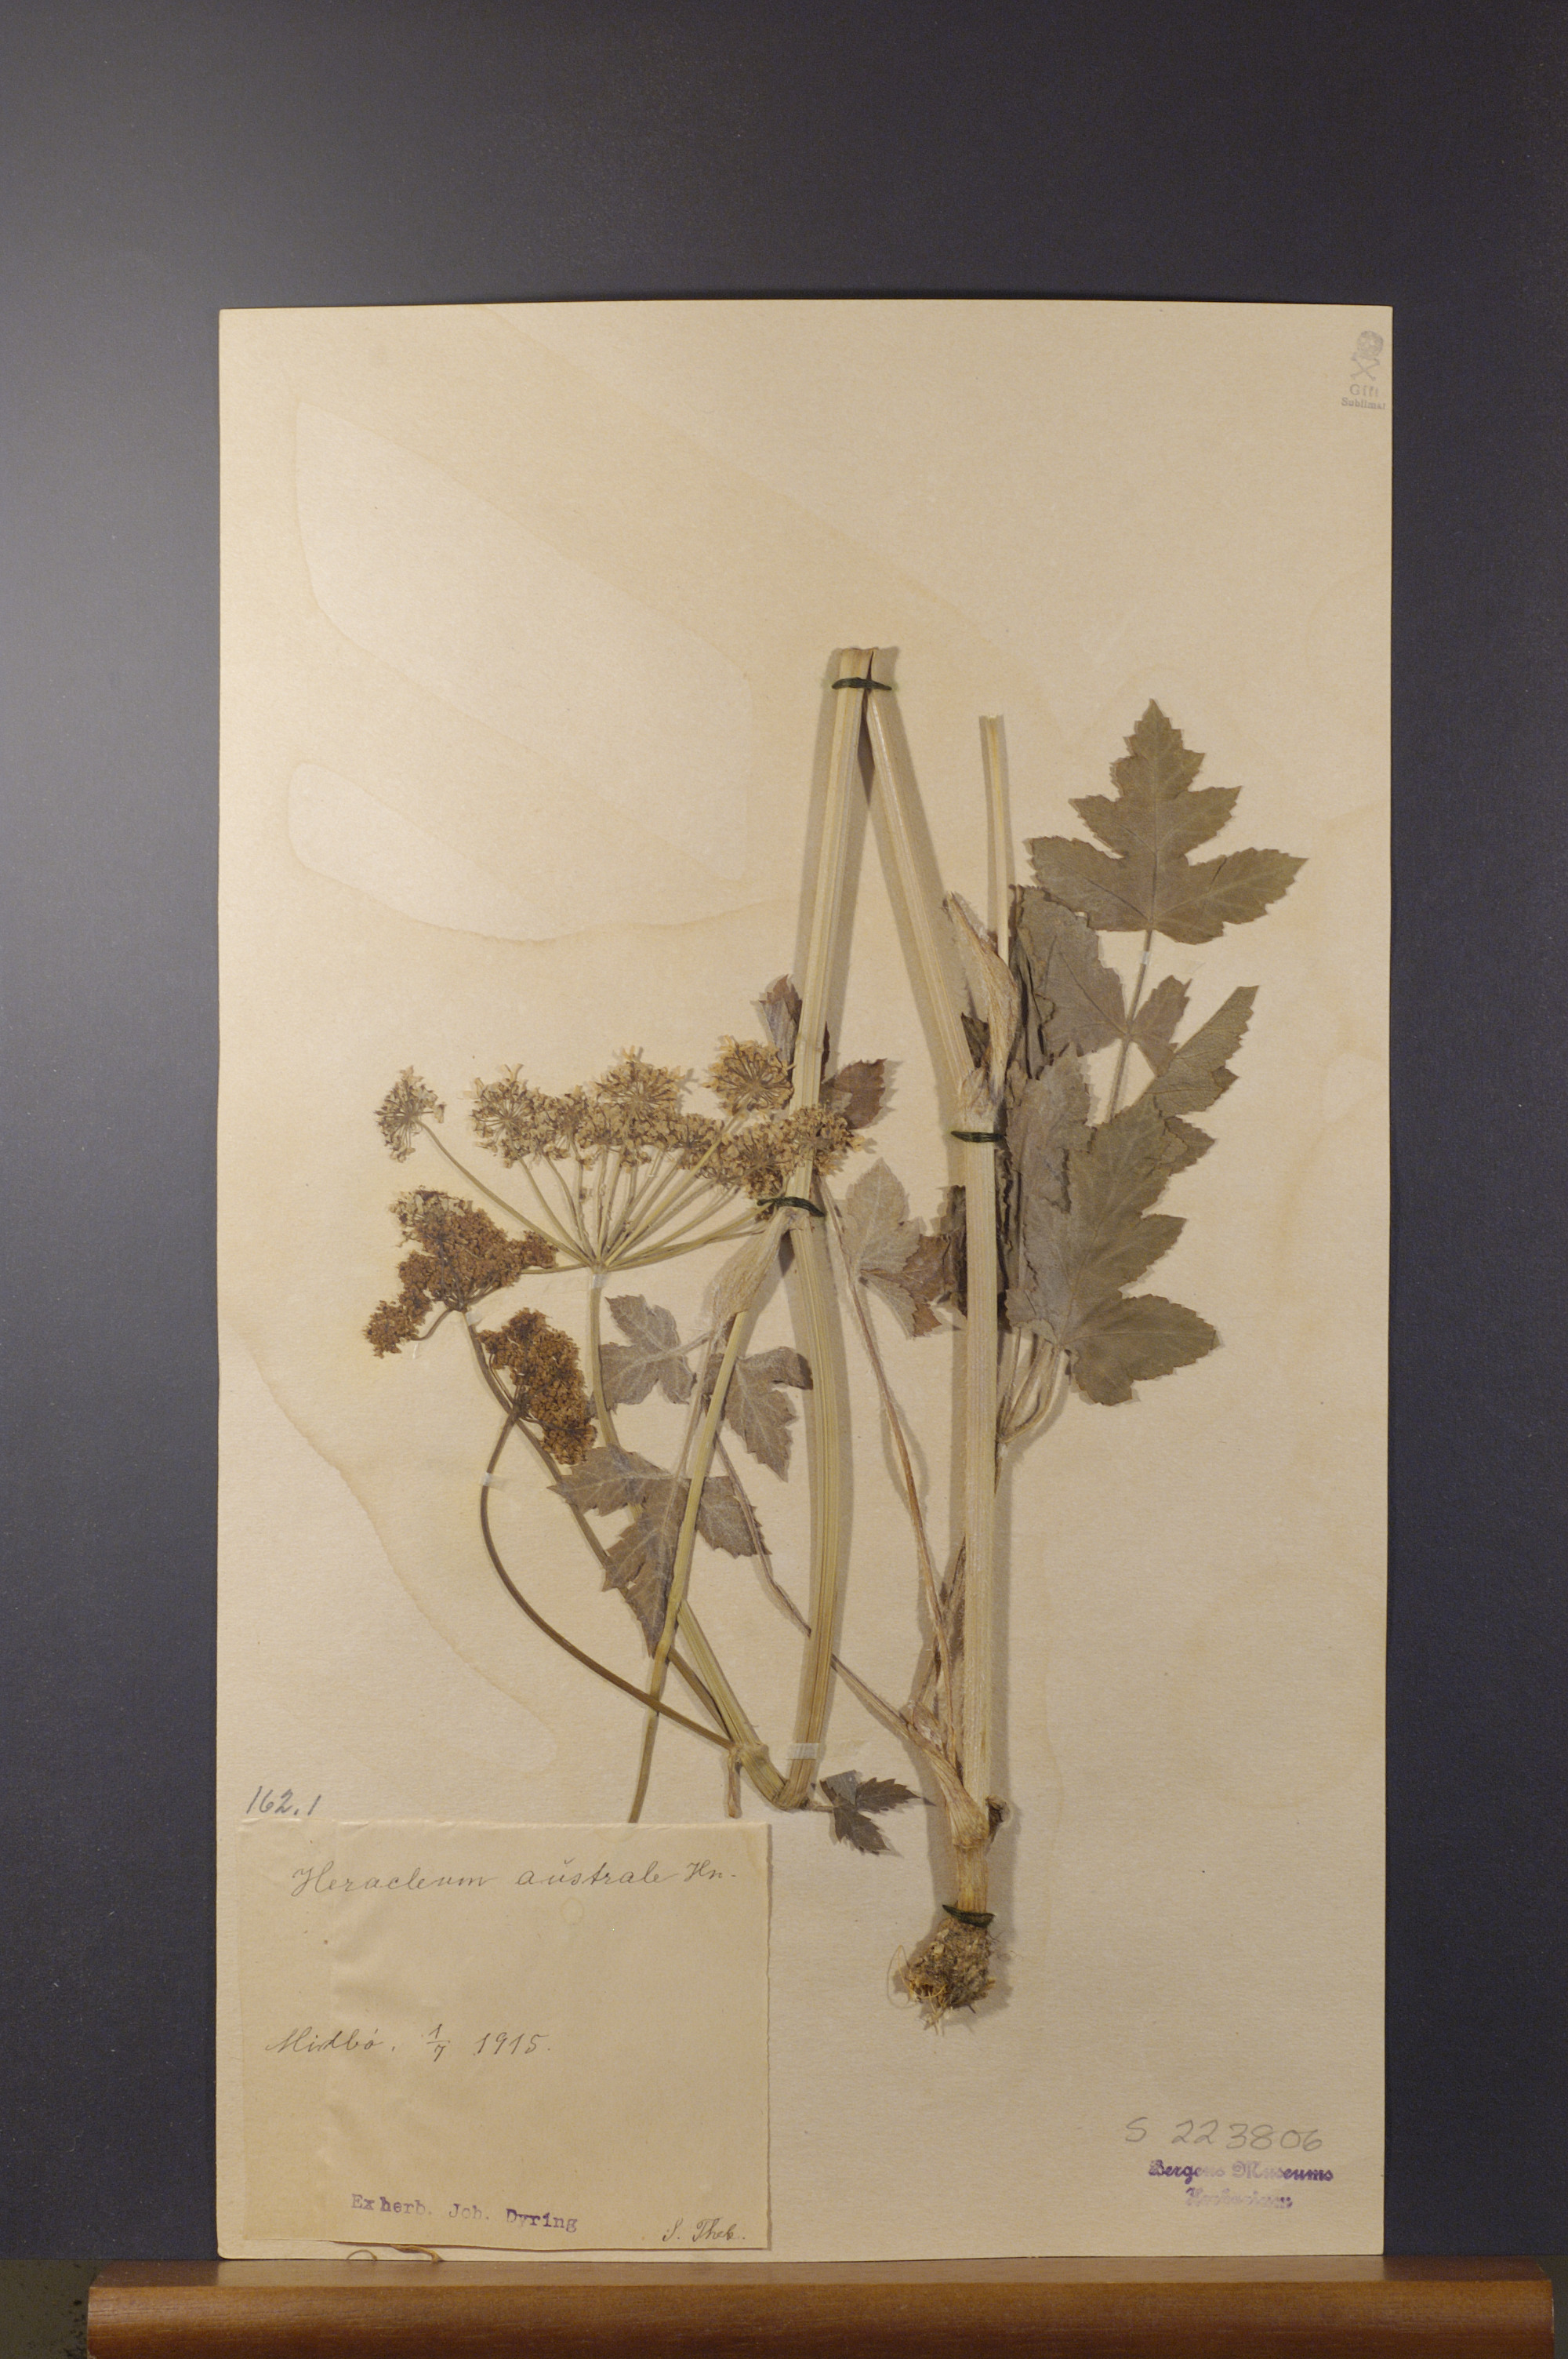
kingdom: Plantae
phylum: Tracheophyta
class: Magnoliopsida
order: Apiales
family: Apiaceae
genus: Heracleum
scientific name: Heracleum sphondylium
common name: Hogweed
